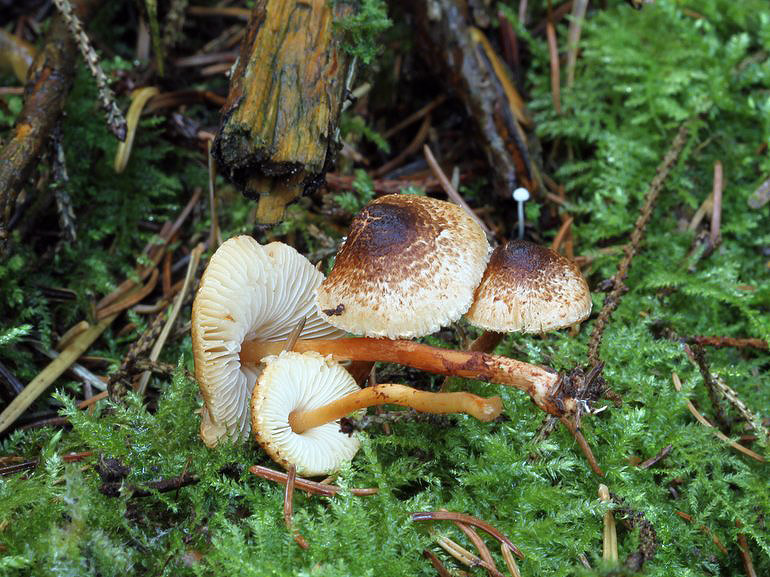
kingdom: Fungi
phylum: Basidiomycota
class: Agaricomycetes
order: Agaricales
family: Agaricaceae
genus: Lepiota
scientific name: Lepiota castanea
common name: kastaniebrun parasolhat
